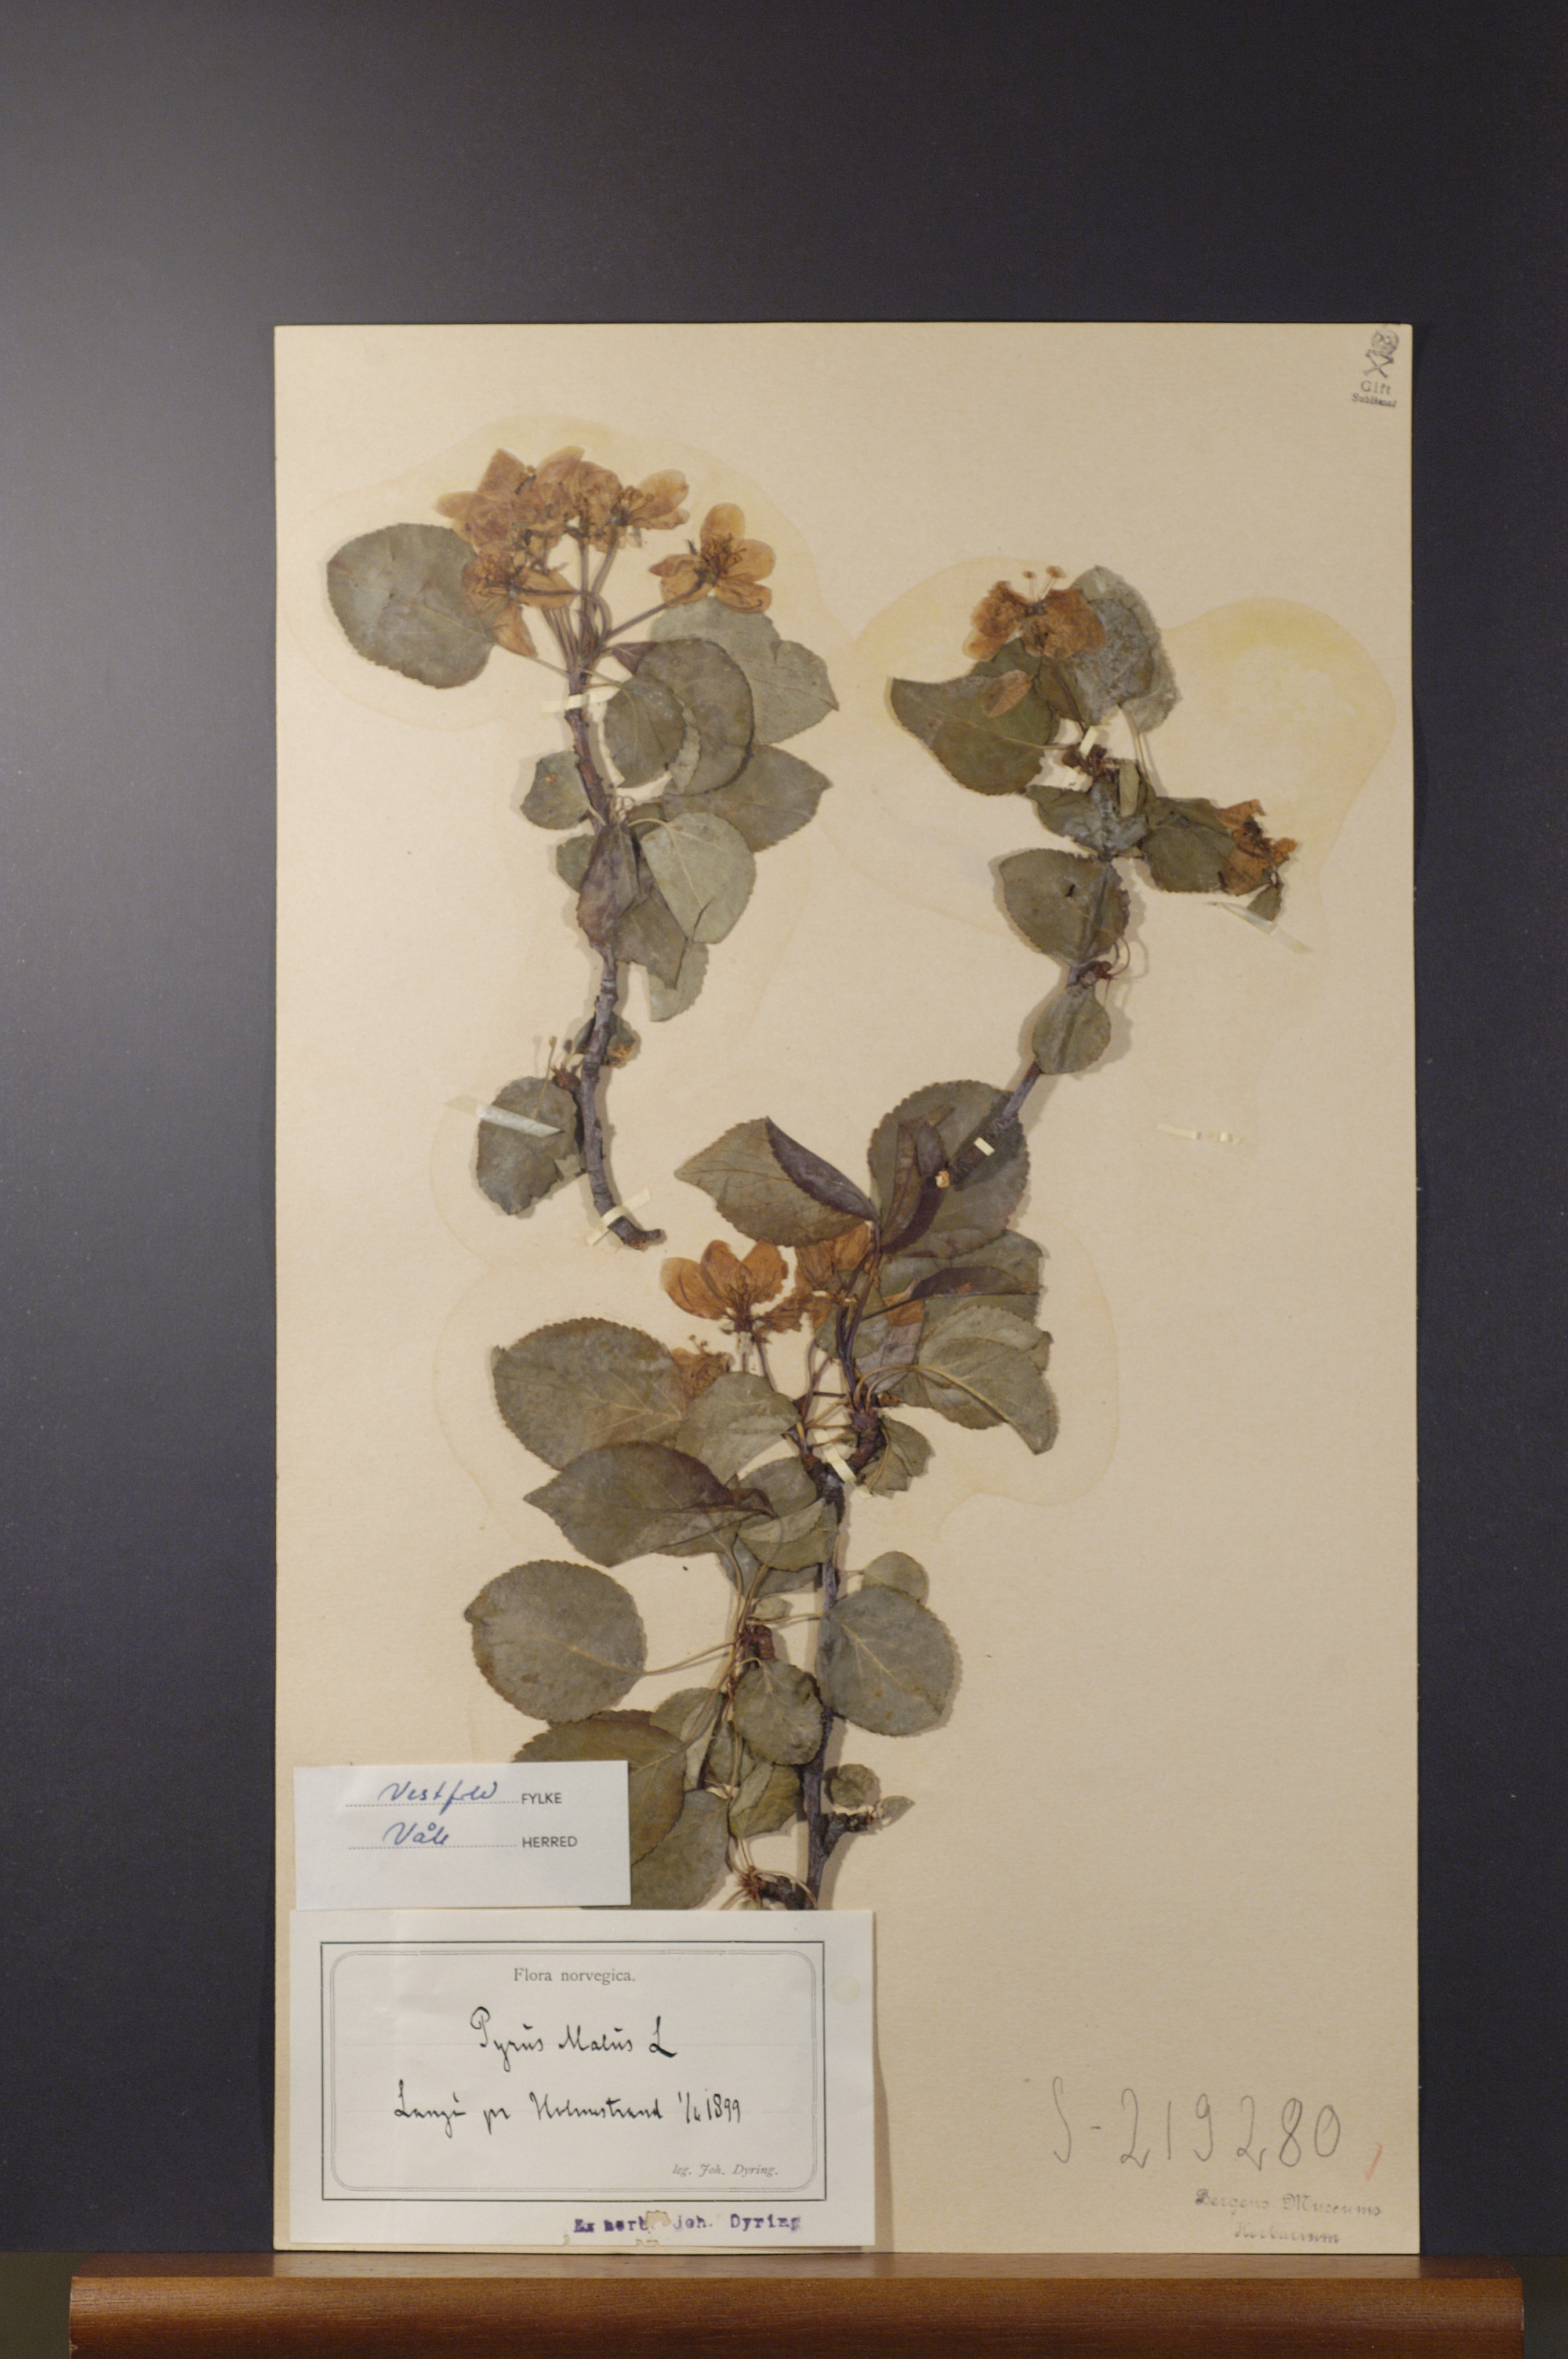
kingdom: Plantae
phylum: Tracheophyta
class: Magnoliopsida
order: Rosales
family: Rosaceae
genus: Malus
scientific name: Malus domestica
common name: Apple
